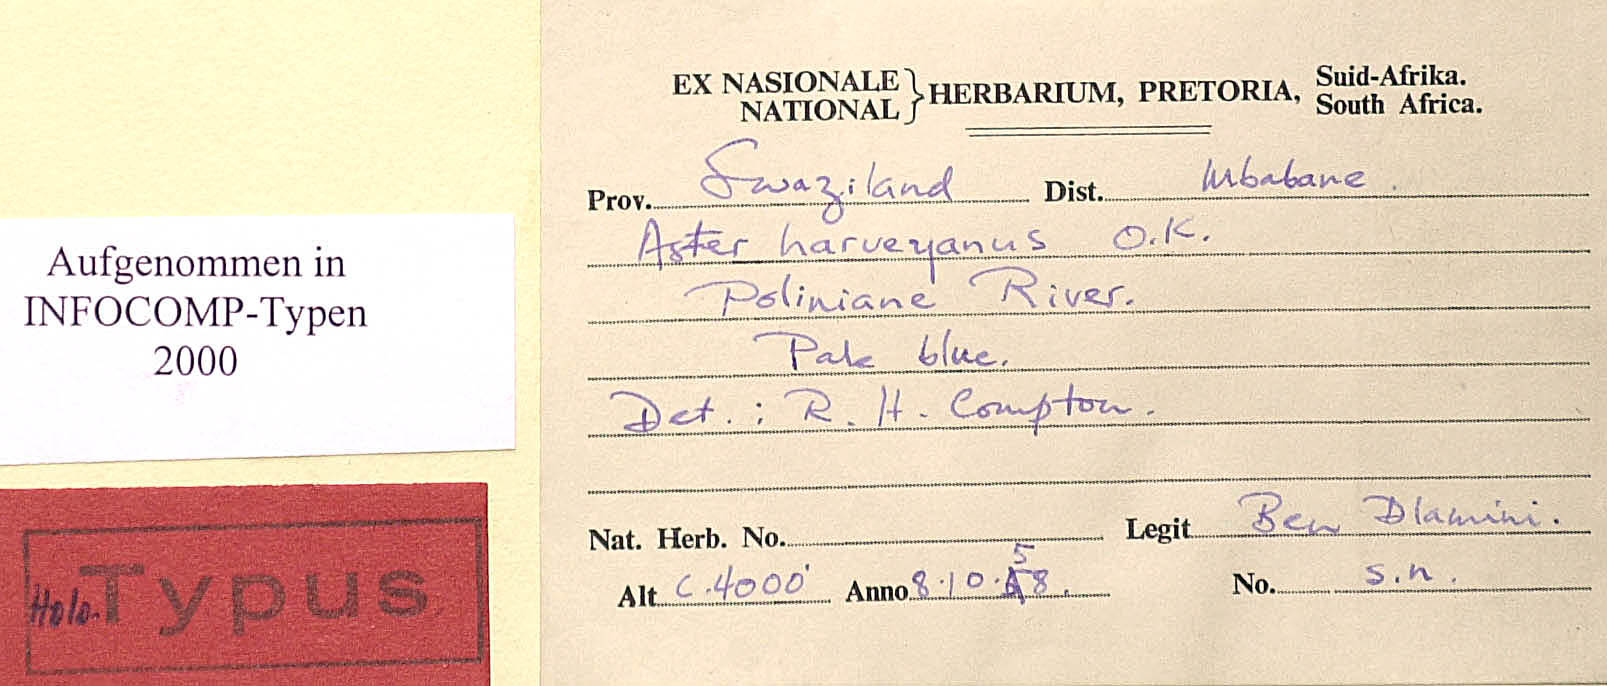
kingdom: Plantae
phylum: Tracheophyta
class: Magnoliopsida
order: Asterales
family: Asteraceae
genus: Afroaster
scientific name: Afroaster serrulatus
